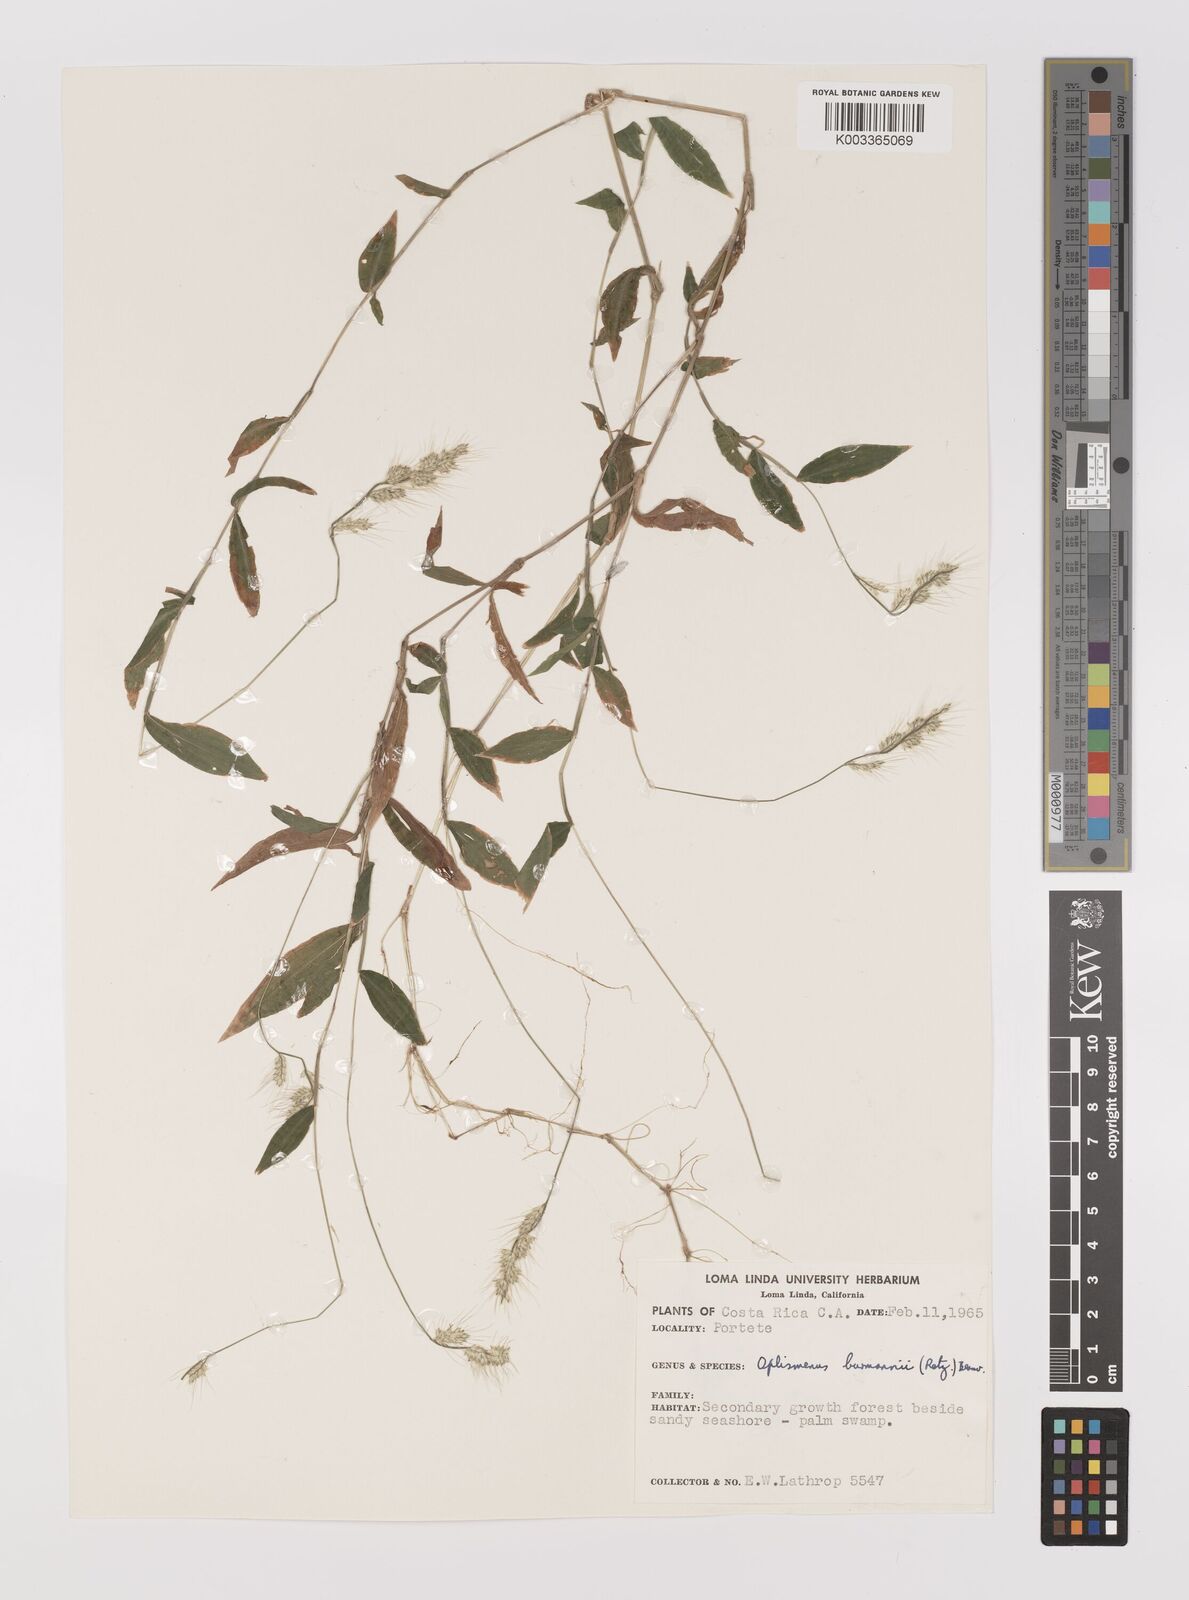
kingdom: Plantae
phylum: Tracheophyta
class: Liliopsida
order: Poales
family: Poaceae
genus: Oplismenus
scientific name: Oplismenus burmanni
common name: Burmann's basketgrass
